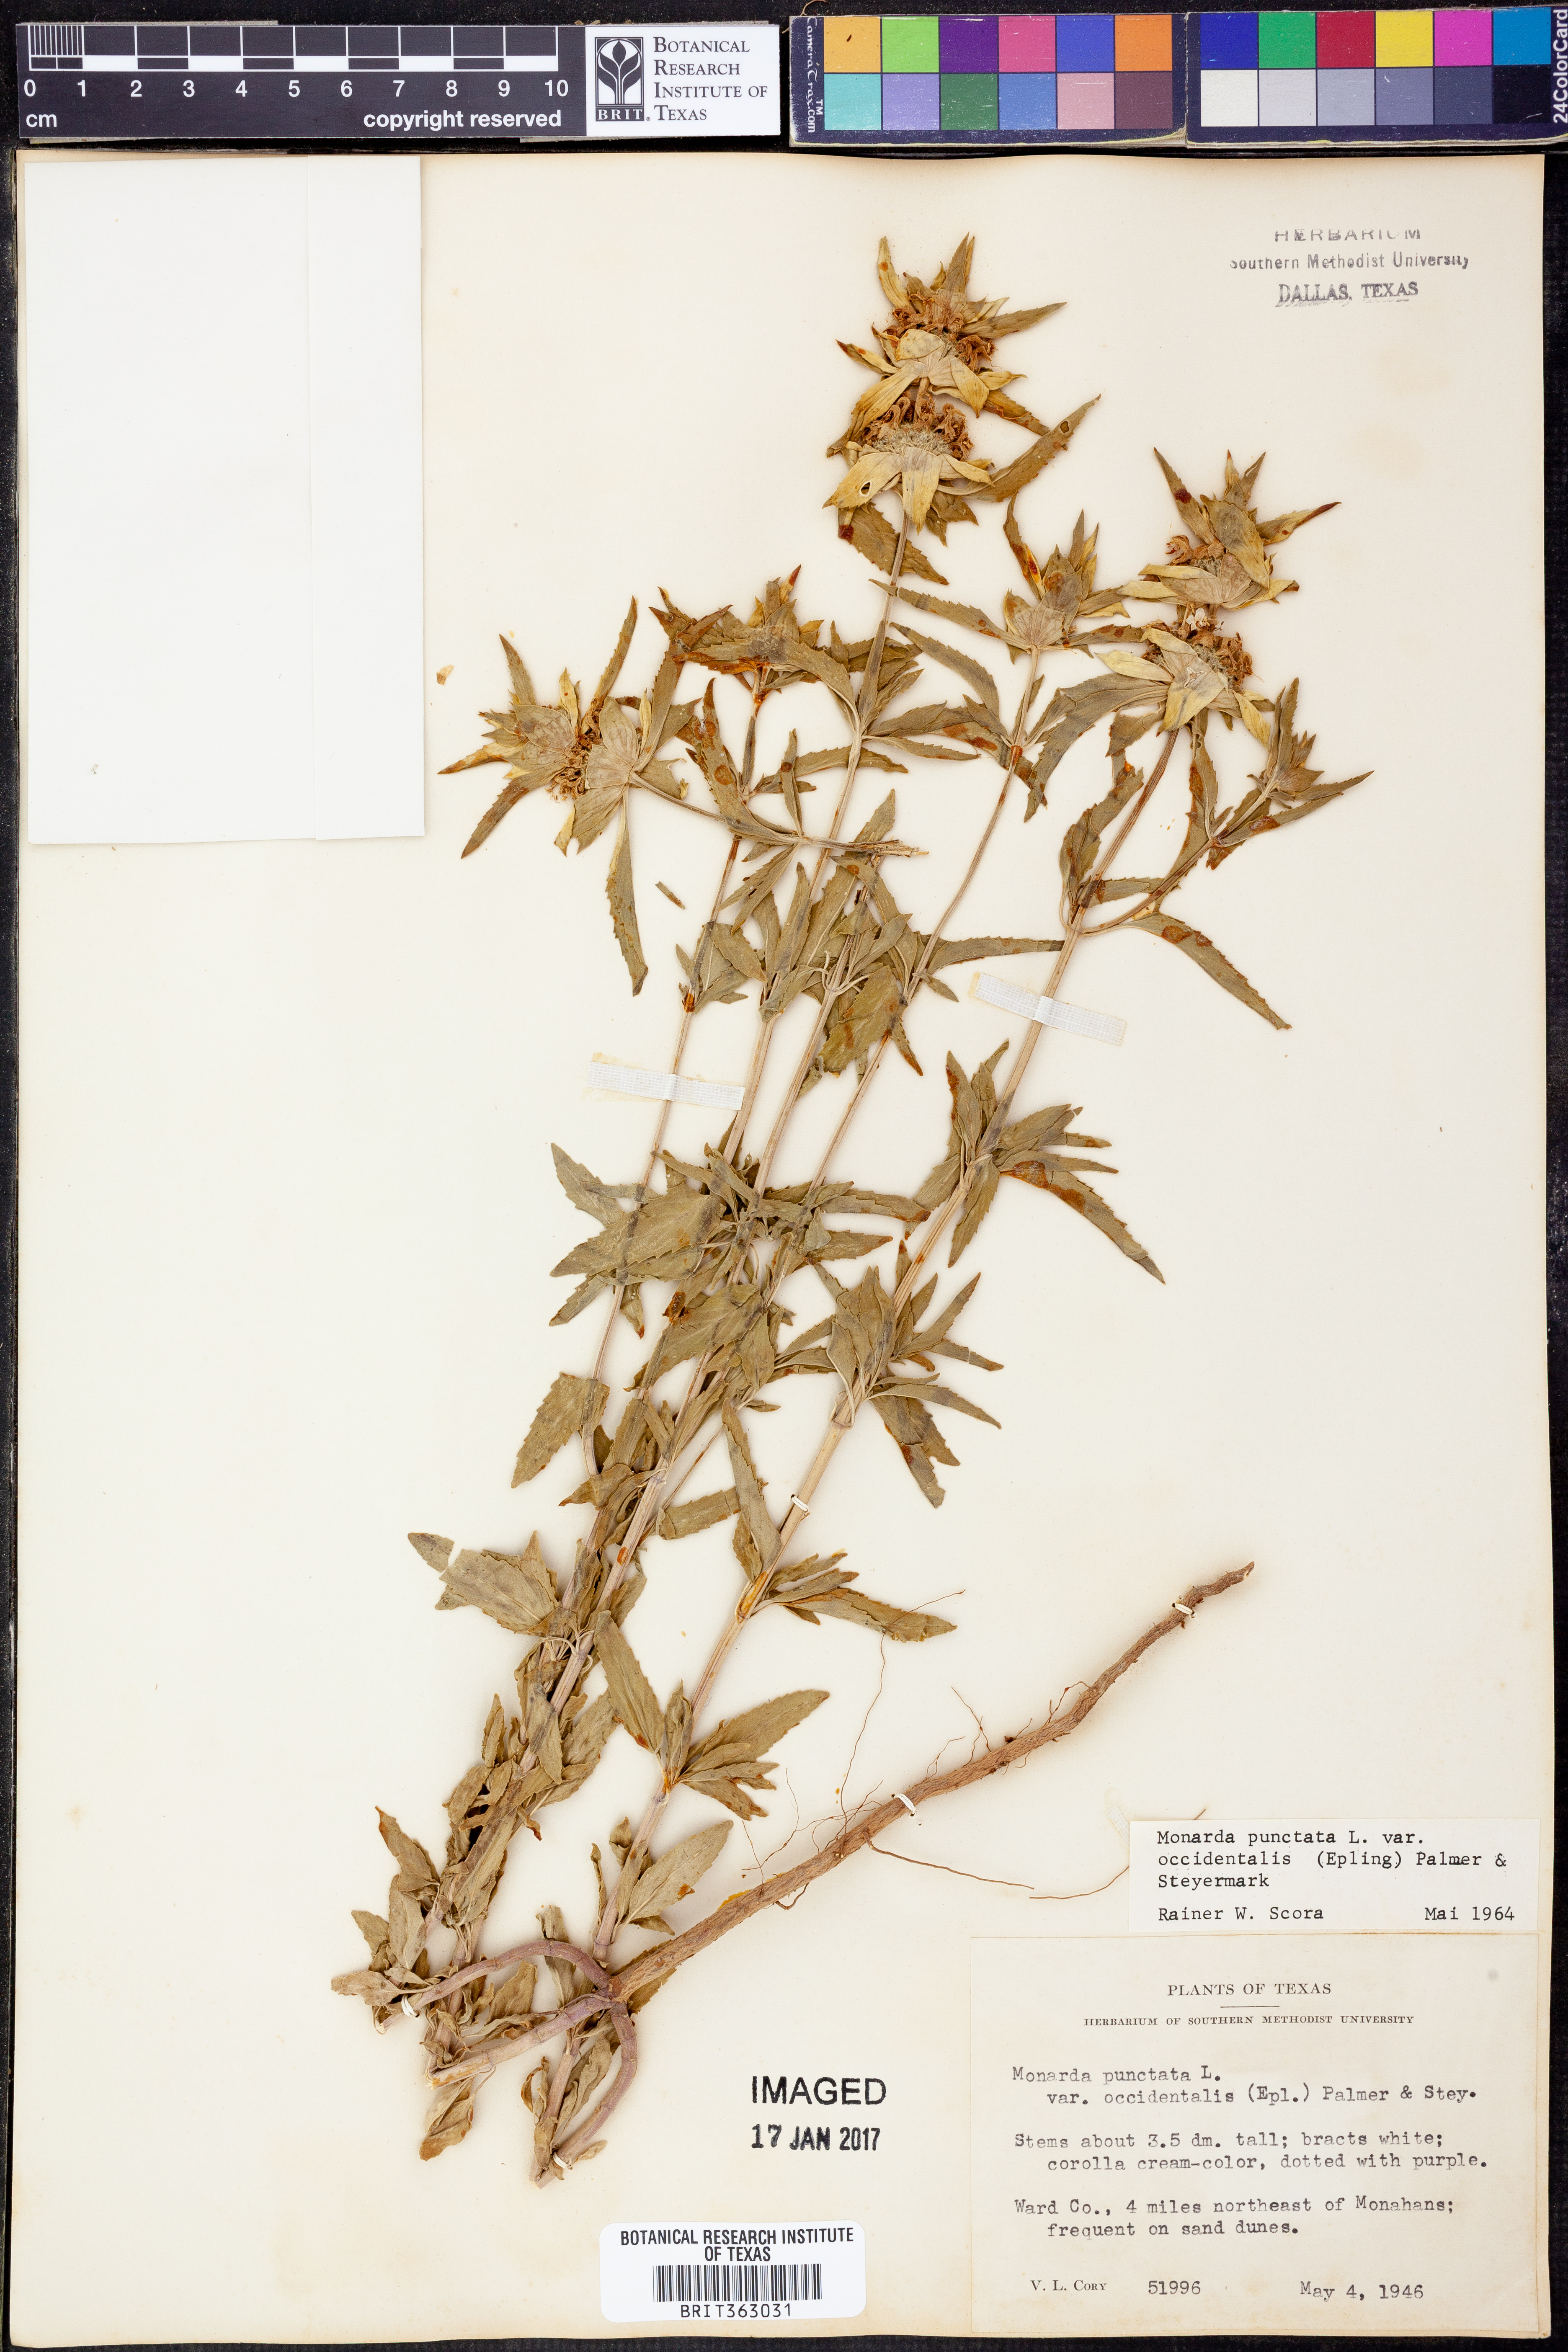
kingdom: Plantae
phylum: Tracheophyta
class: Magnoliopsida
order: Lamiales
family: Lamiaceae
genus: Monarda
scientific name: Monarda punctata
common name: Dotted monarda
